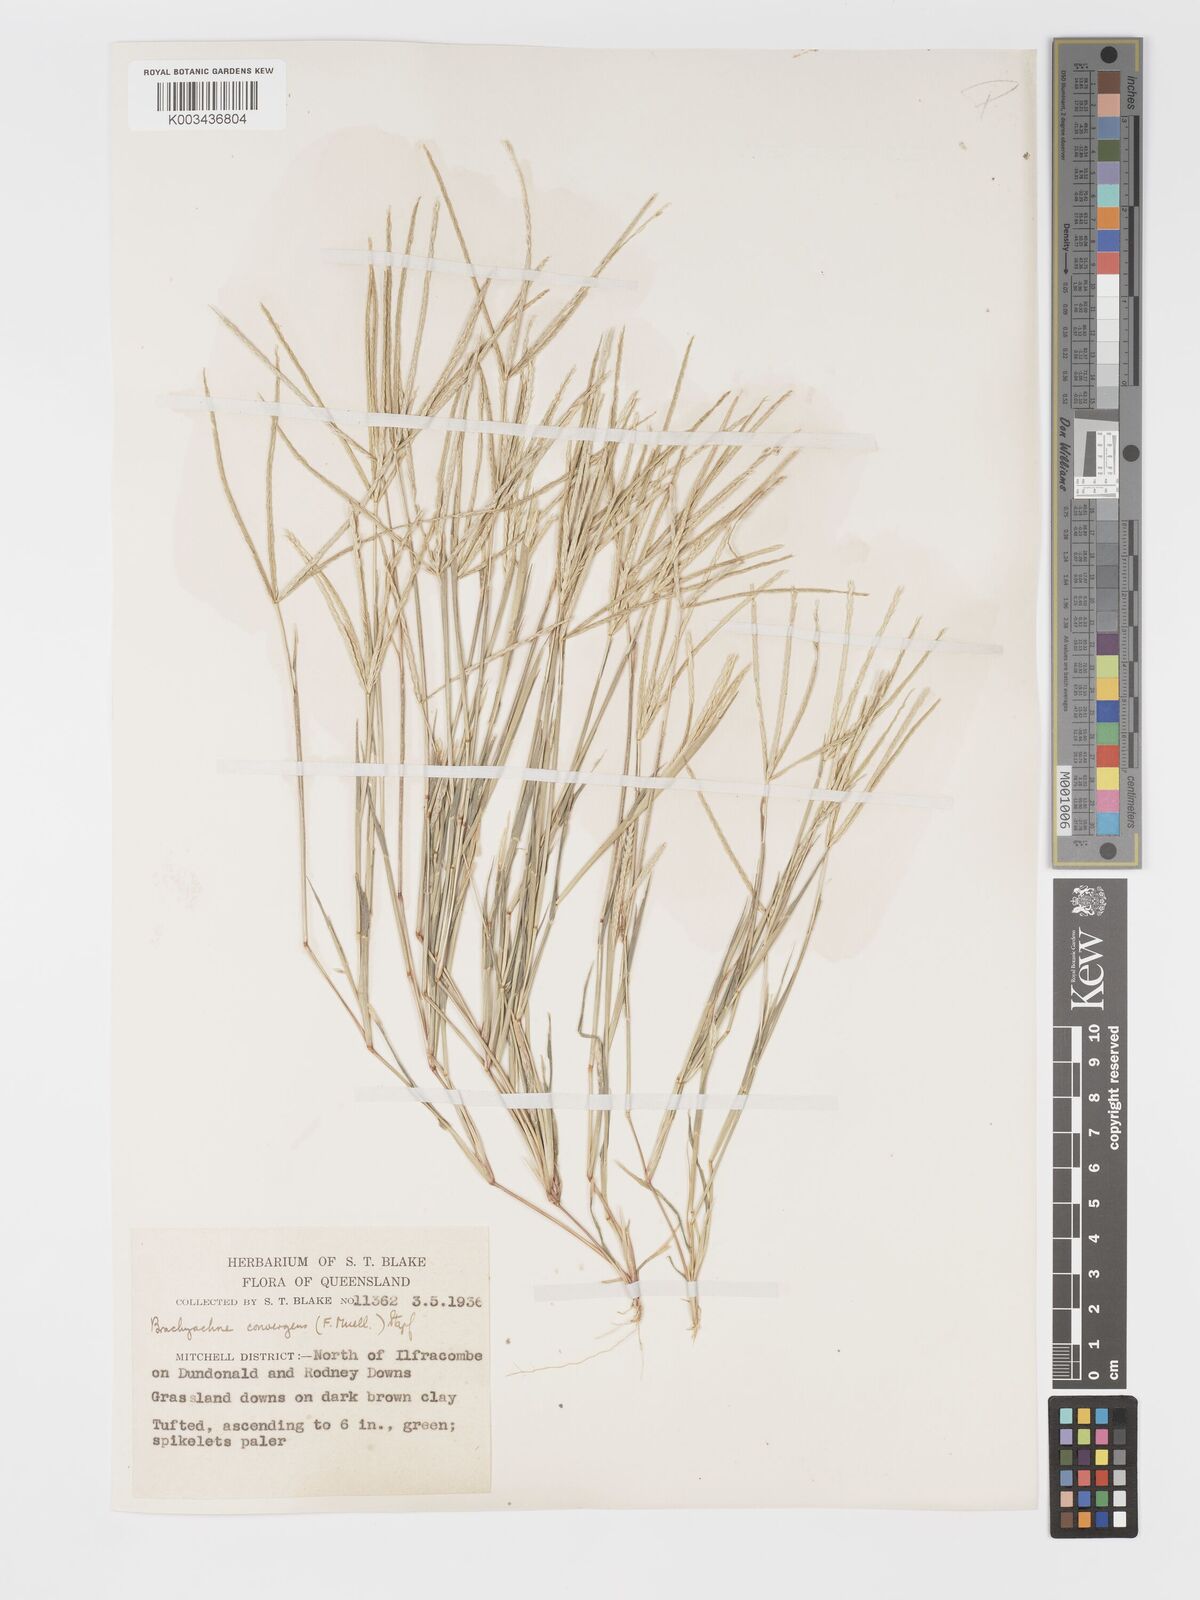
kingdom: Plantae
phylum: Tracheophyta
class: Liliopsida
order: Poales
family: Poaceae
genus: Cynodon
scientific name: Cynodon convergens
